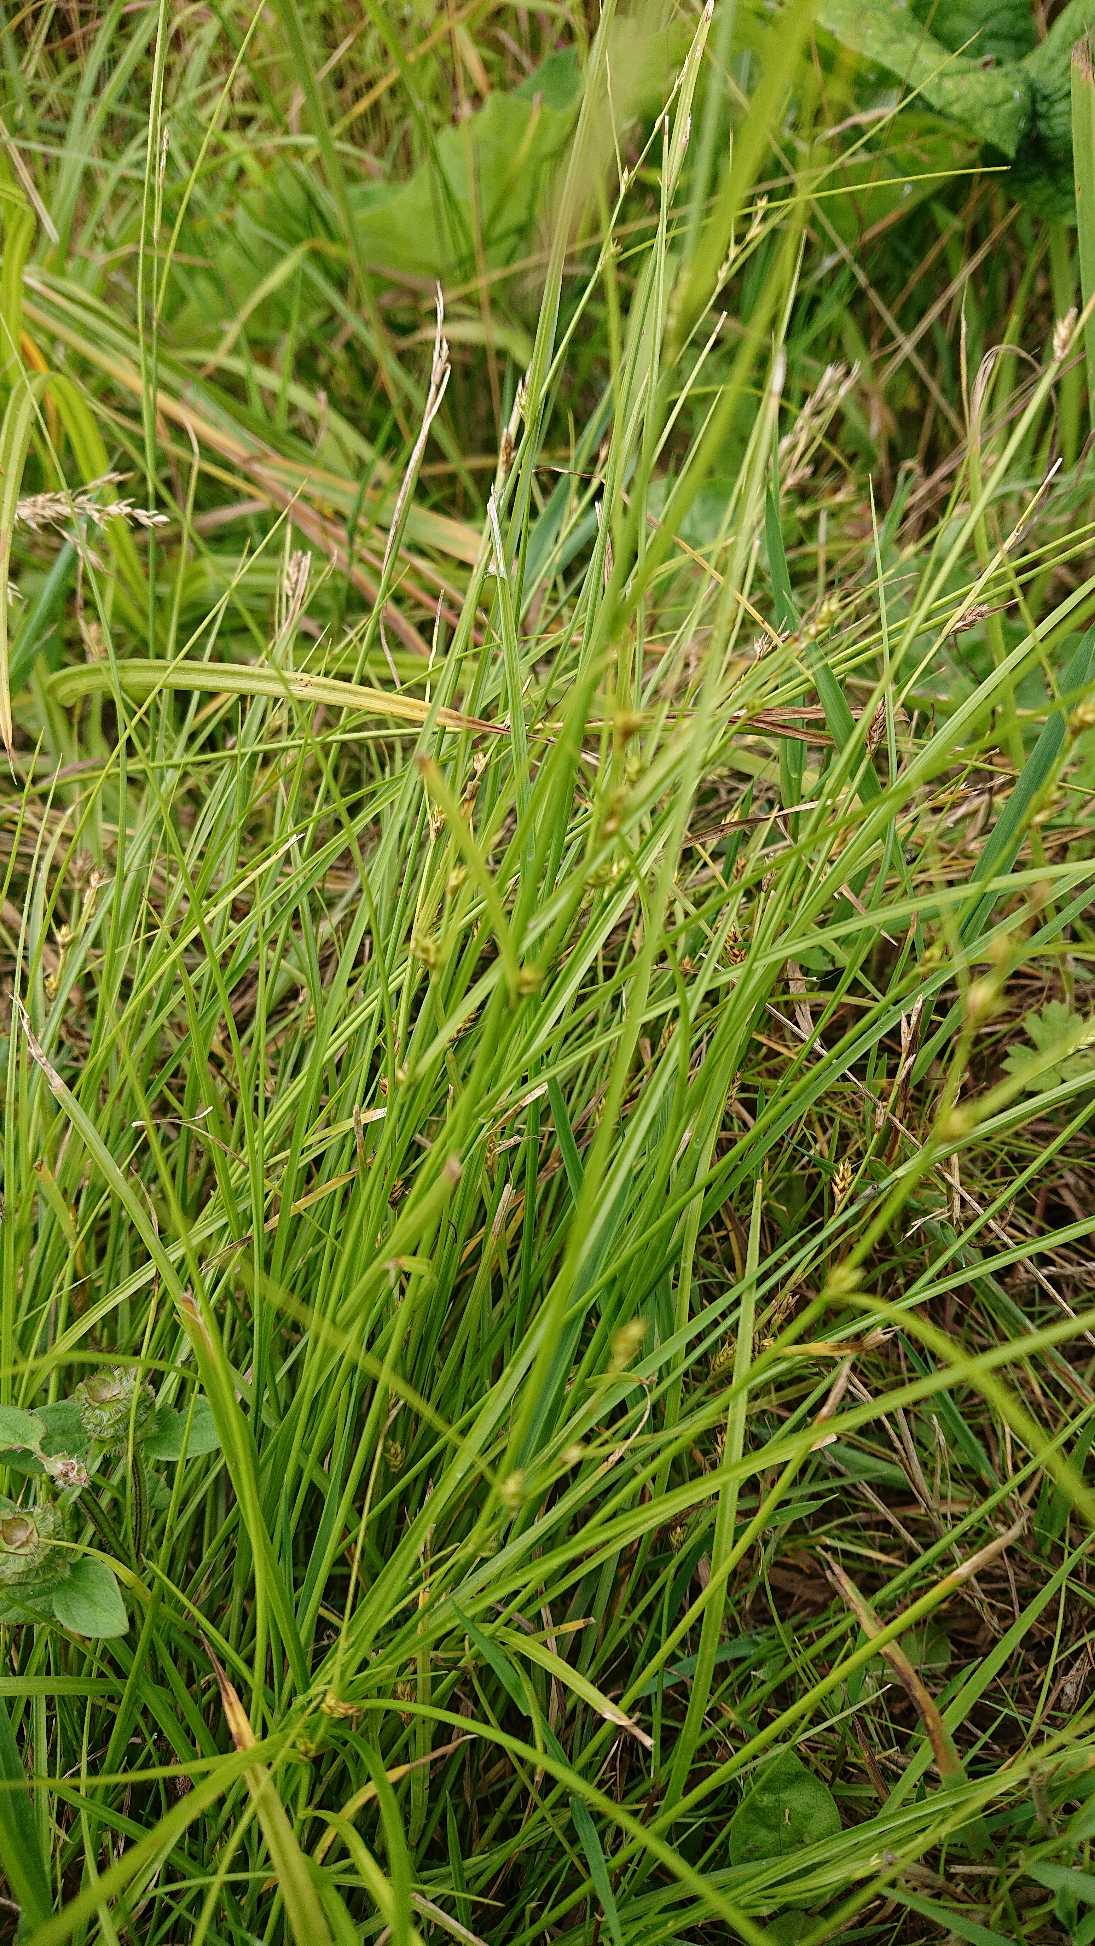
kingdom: Plantae
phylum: Tracheophyta
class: Liliopsida
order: Poales
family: Cyperaceae
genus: Carex
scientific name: Carex remota
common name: Akselblomstret star
